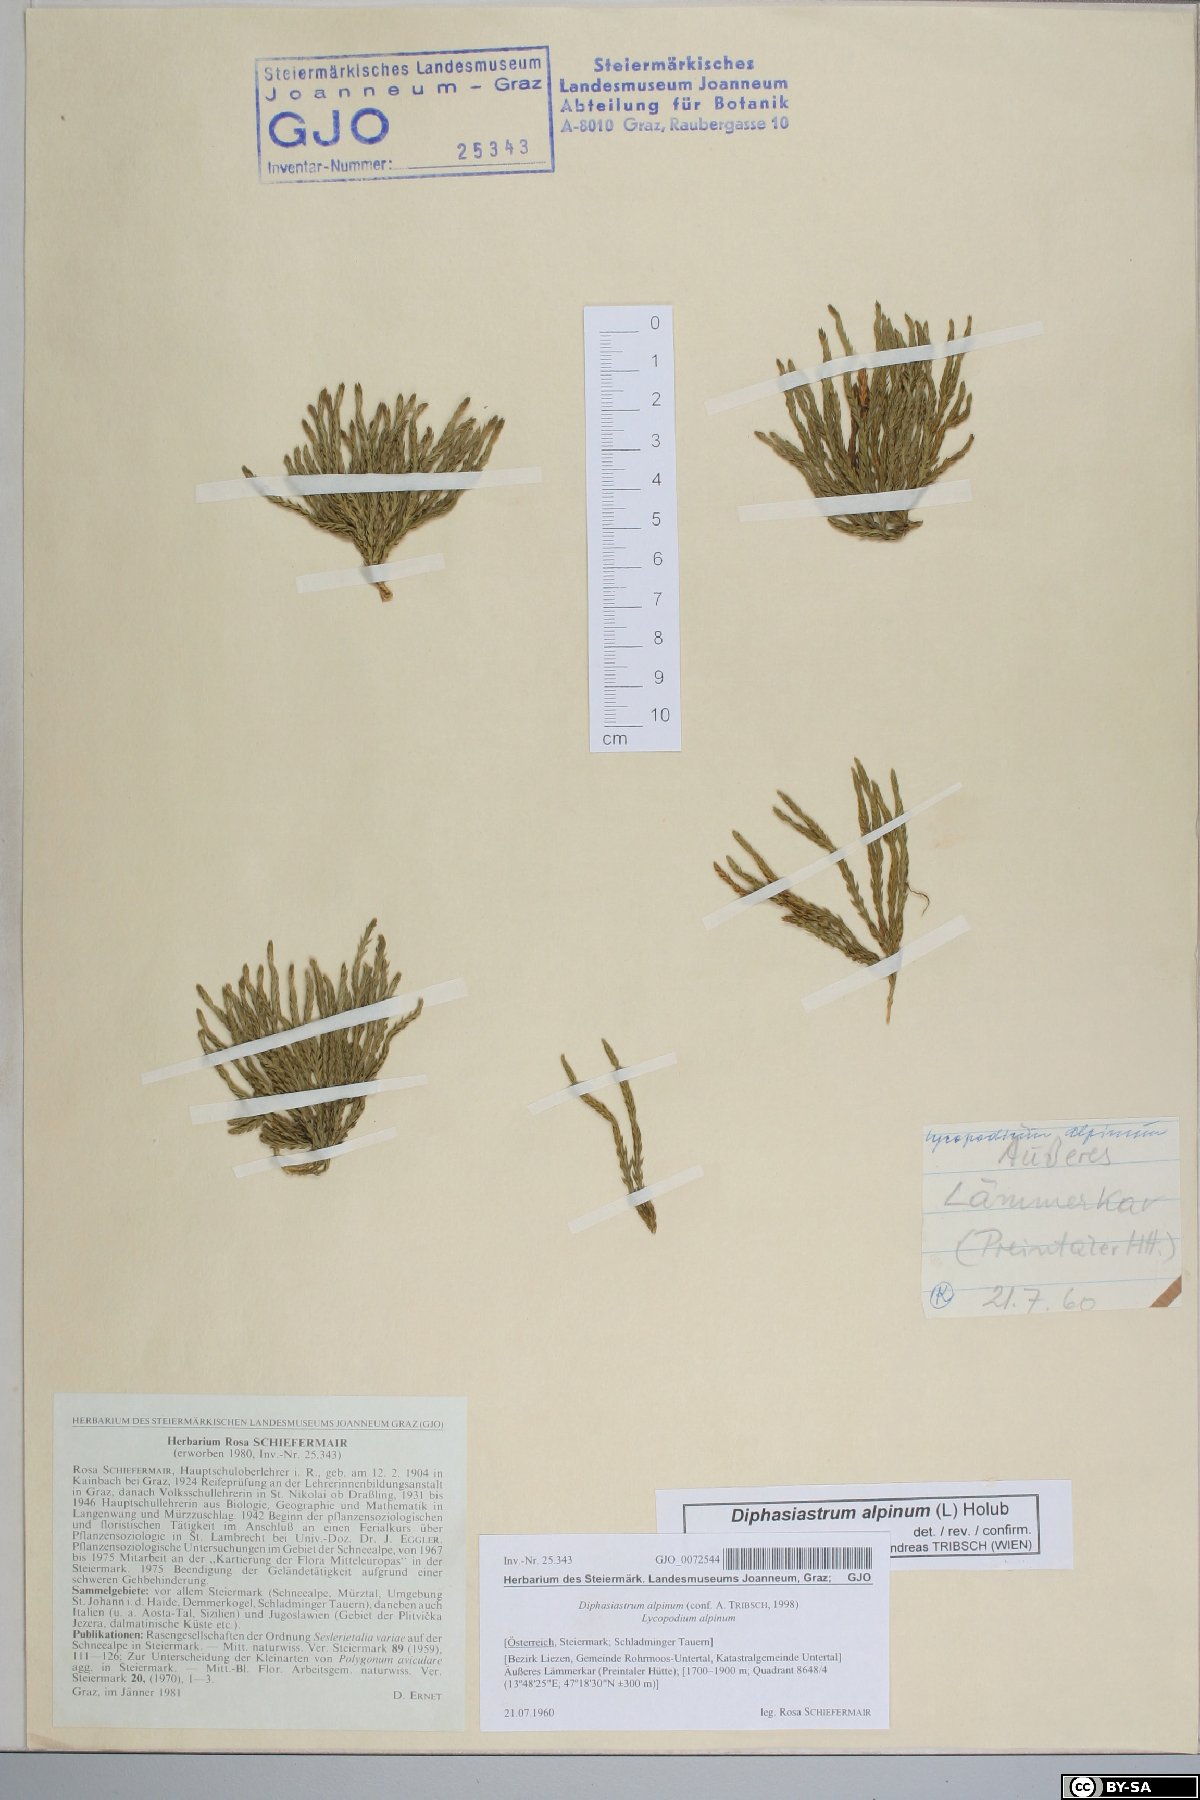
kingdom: Plantae
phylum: Tracheophyta
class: Lycopodiopsida
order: Lycopodiales
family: Lycopodiaceae
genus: Diphasiastrum
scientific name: Diphasiastrum alpinum
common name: Alpine clubmoss
